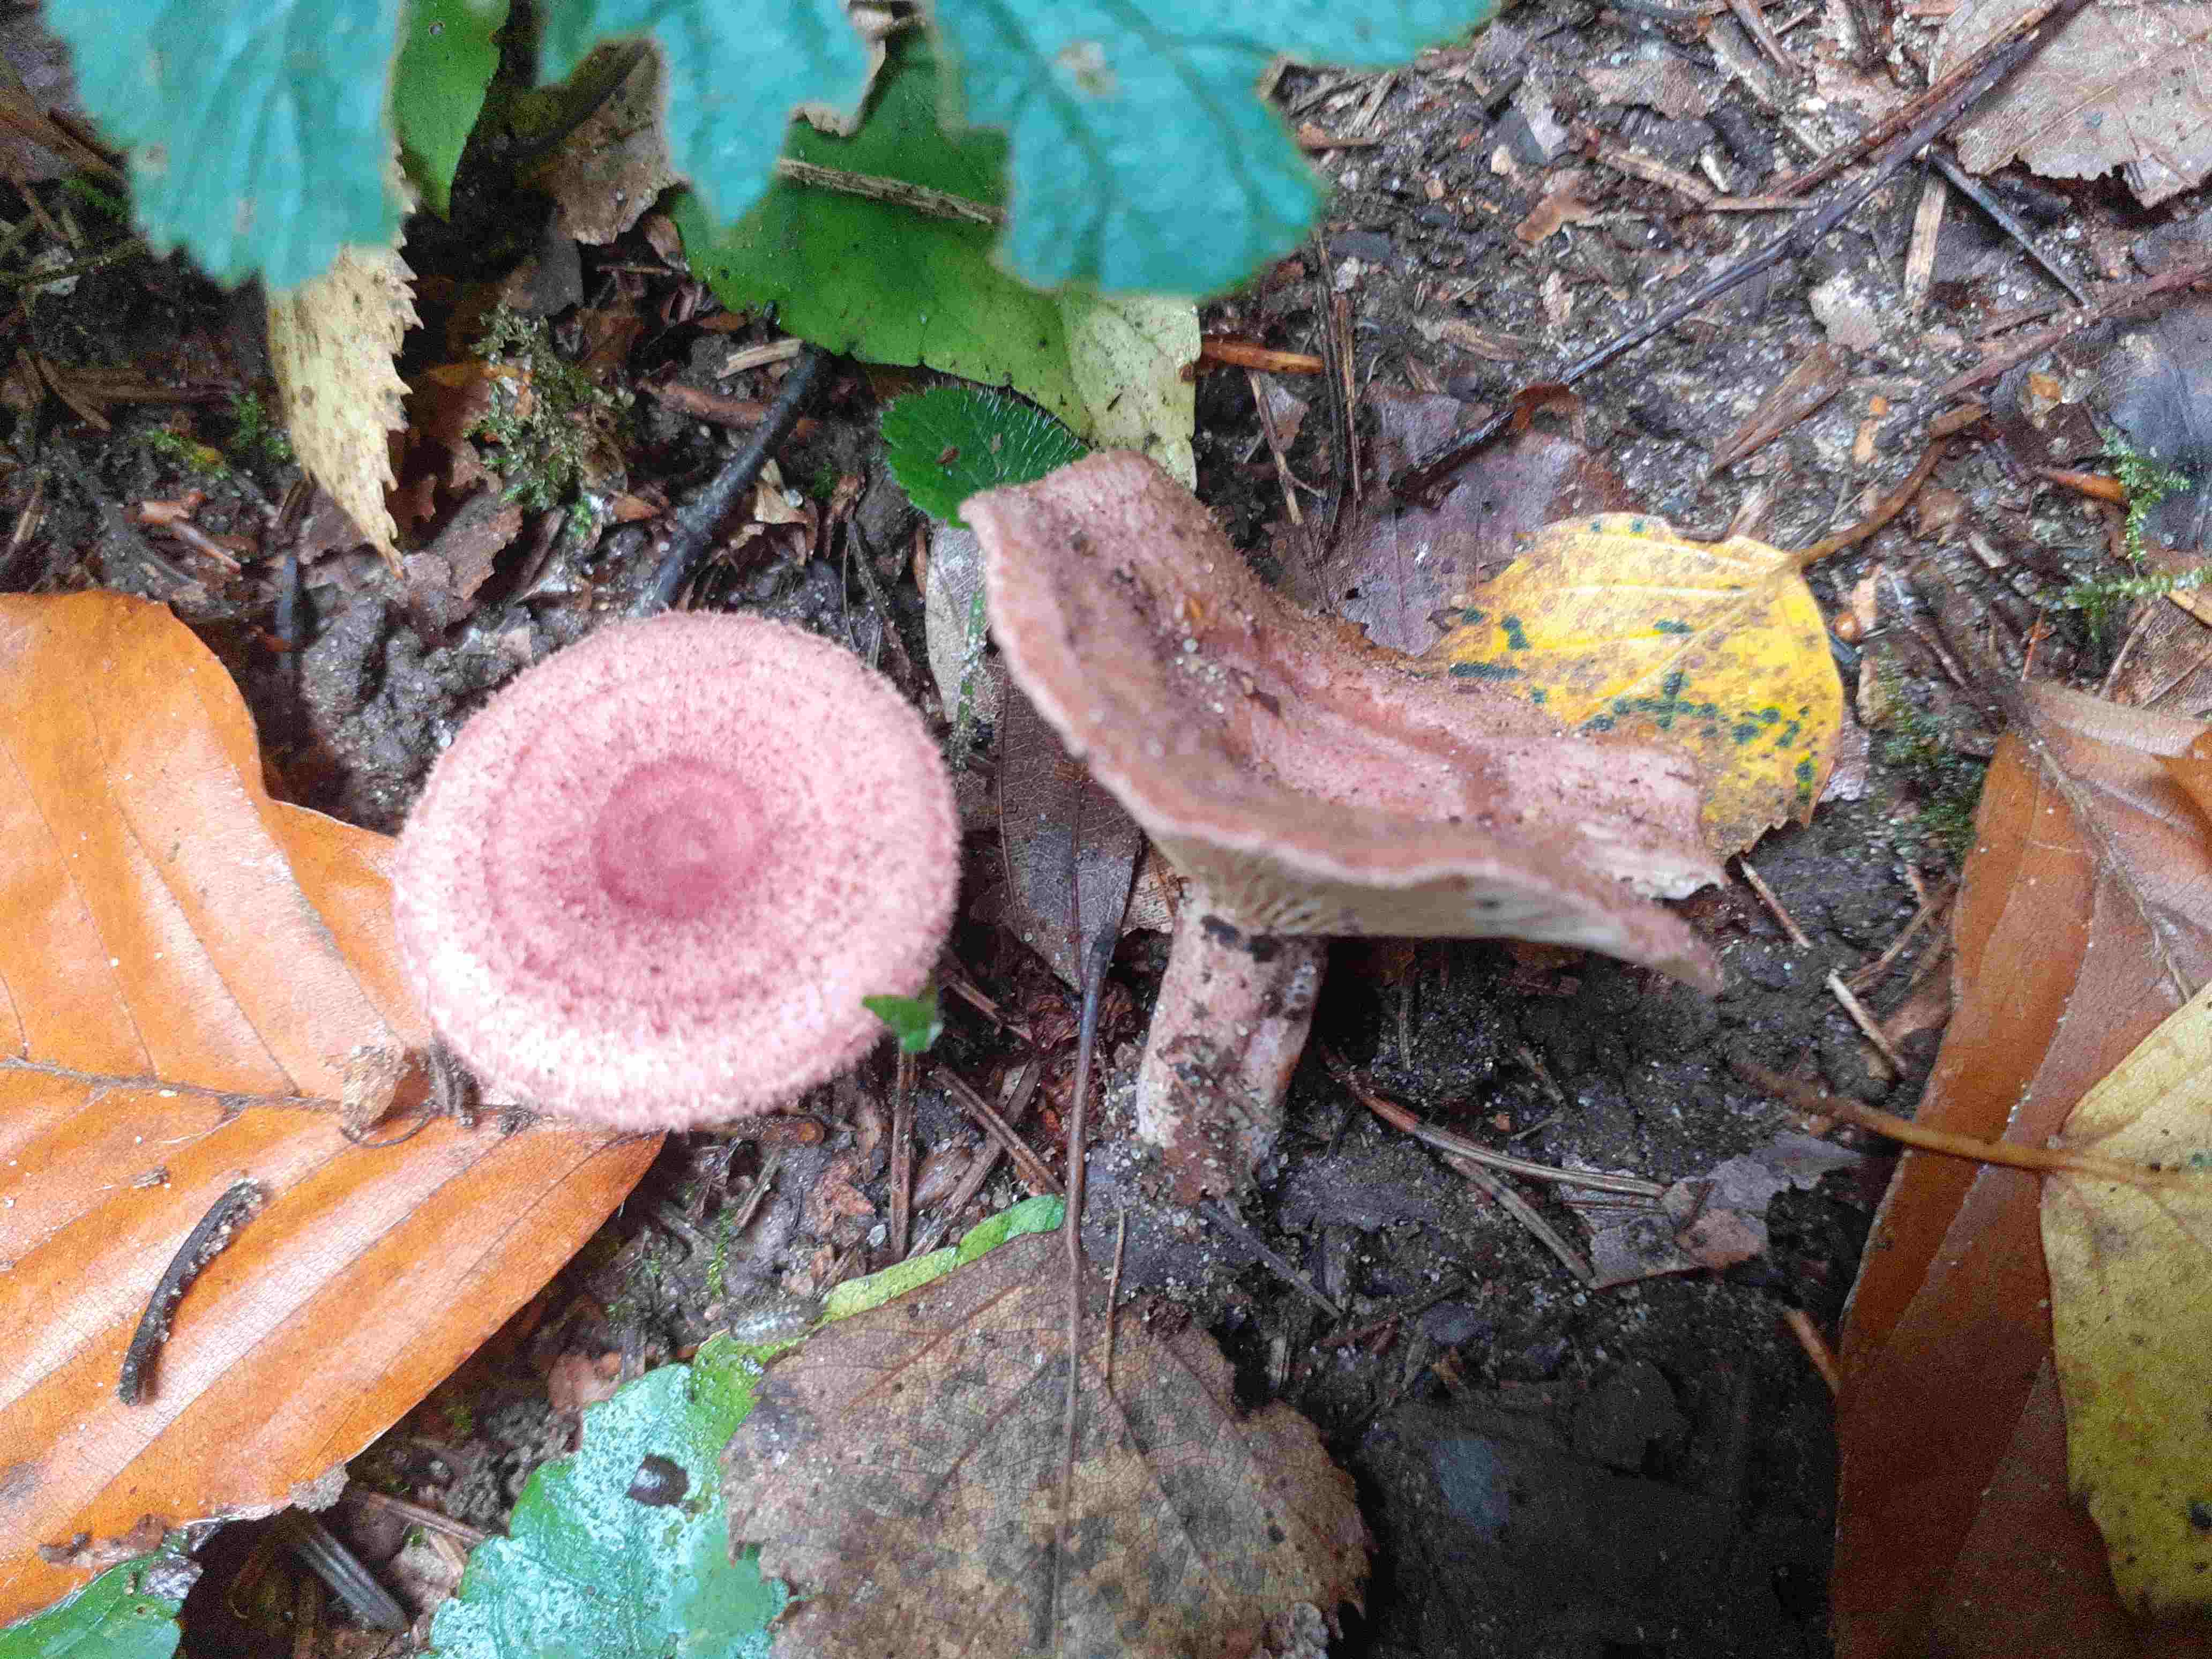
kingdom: Fungi
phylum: Basidiomycota
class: Agaricomycetes
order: Russulales
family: Russulaceae
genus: Lactarius
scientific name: Lactarius spinosulus
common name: småskællet mælkehat
